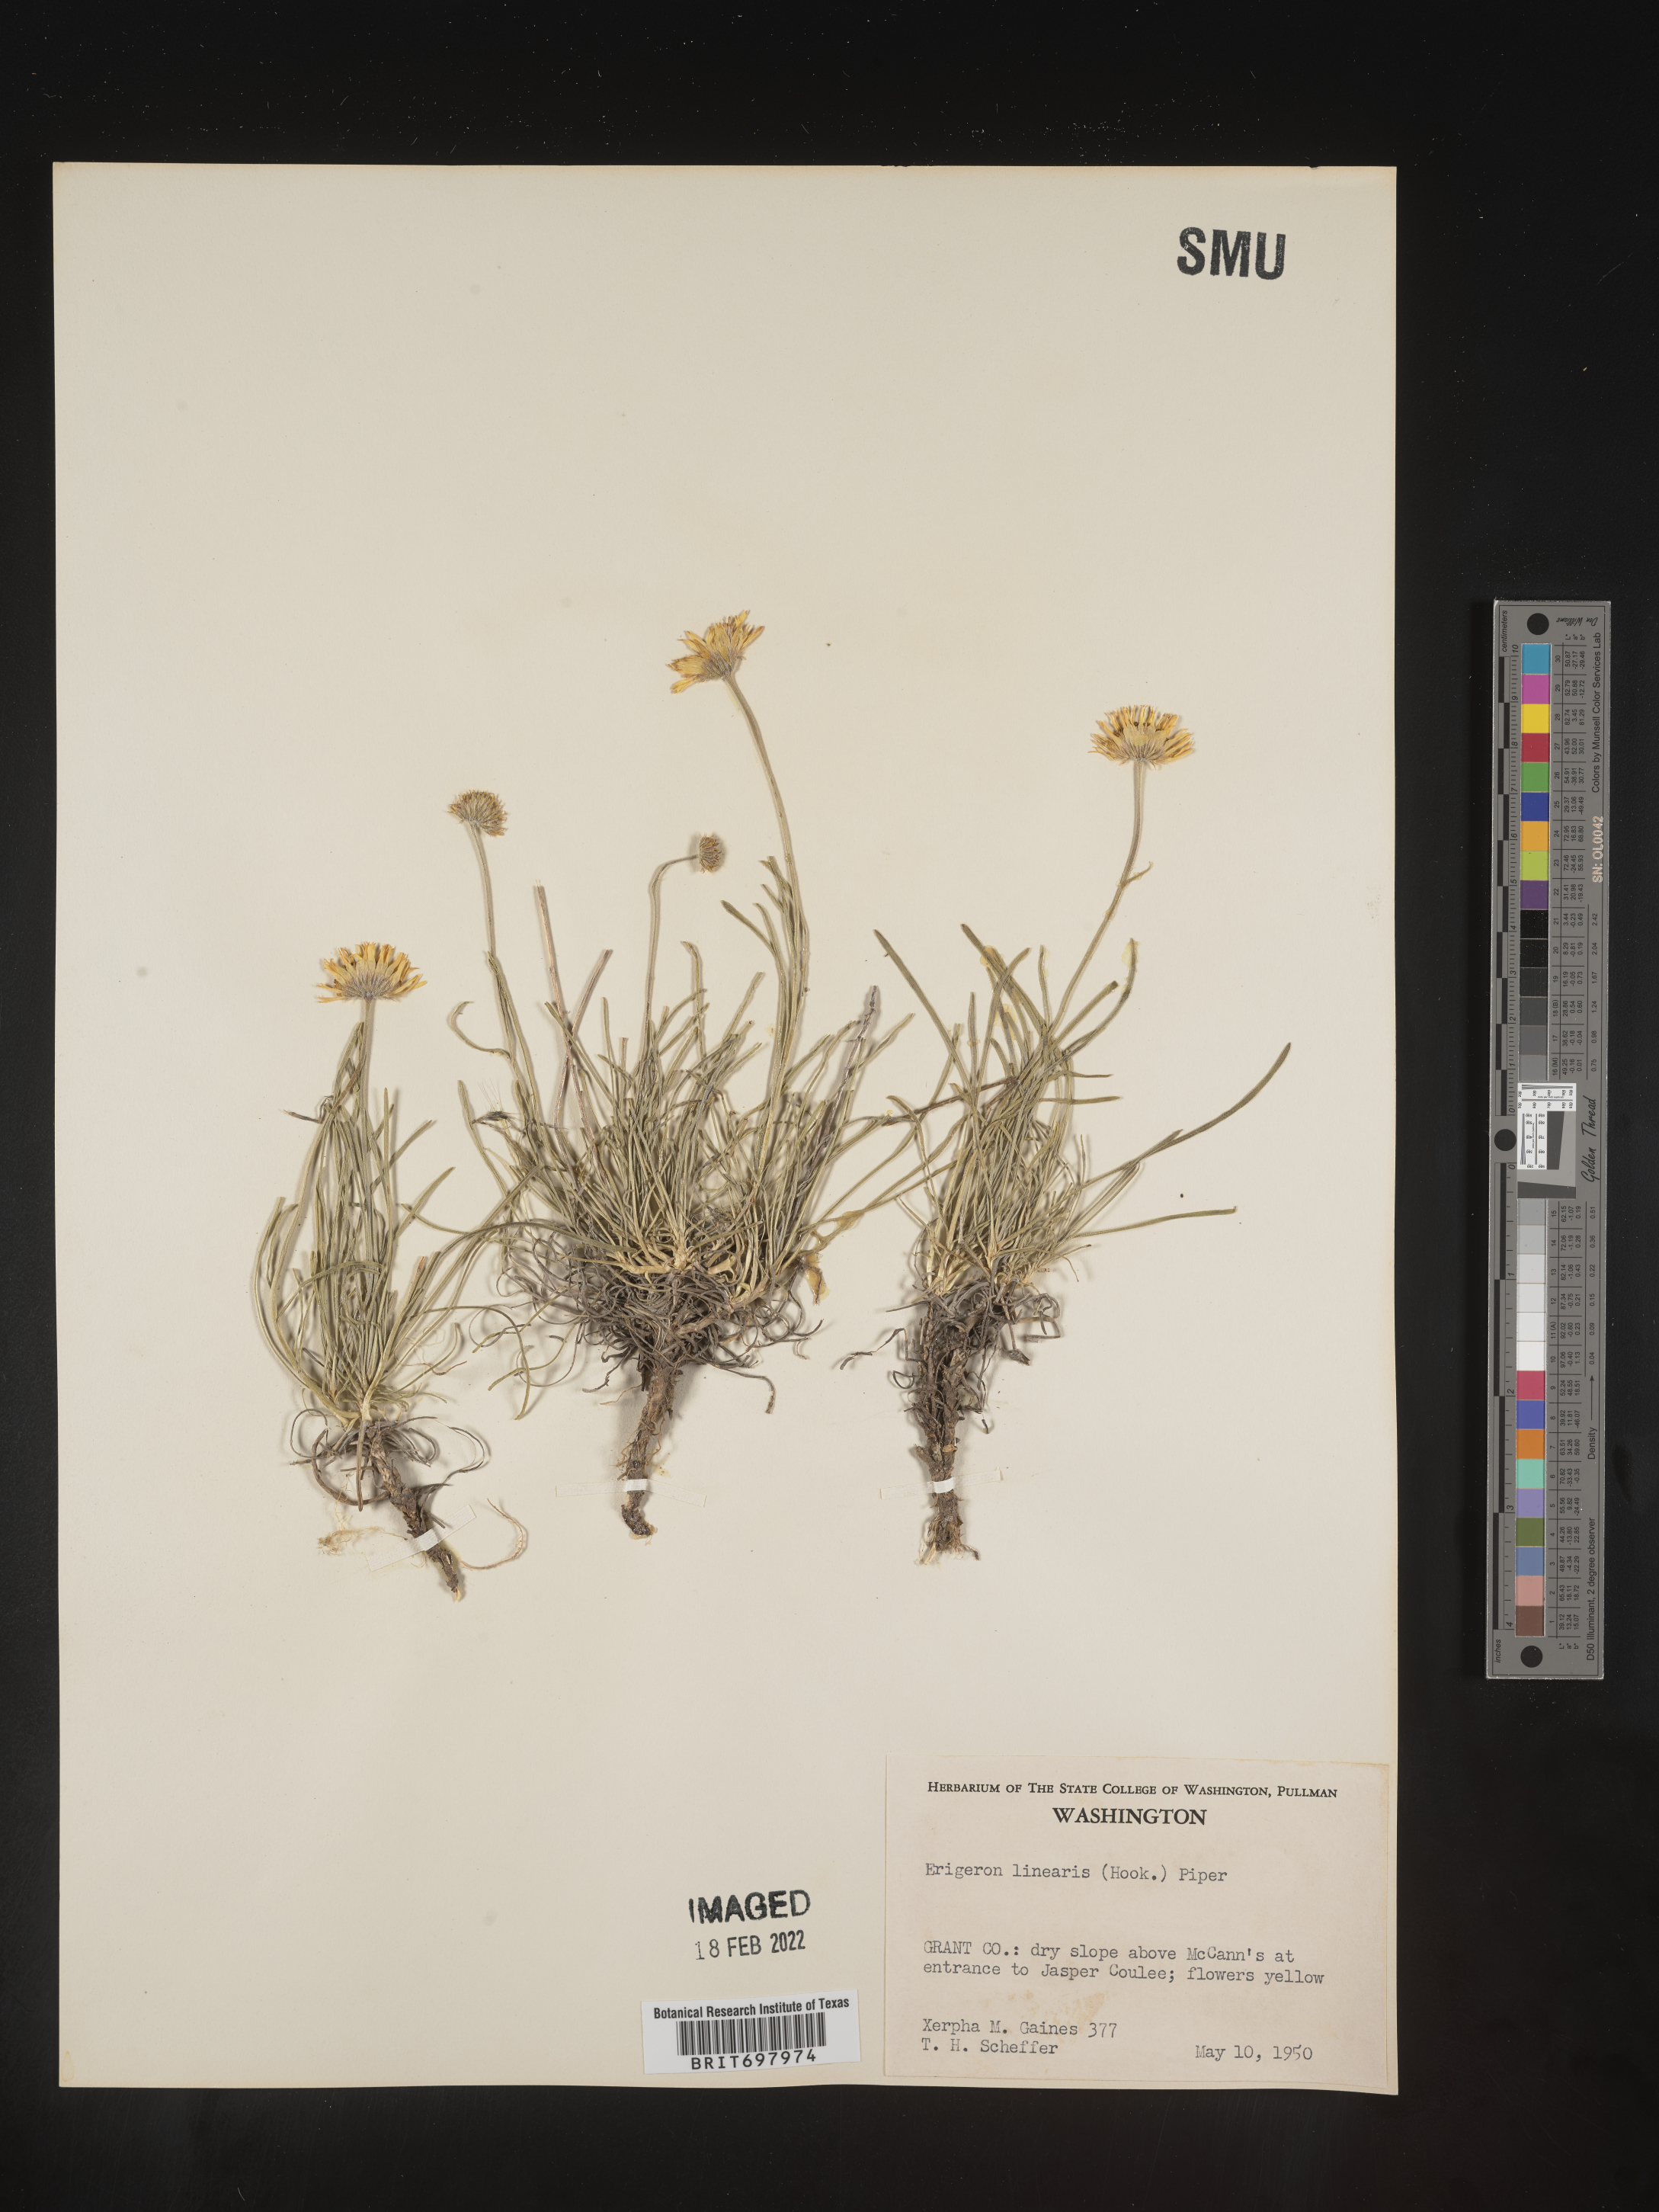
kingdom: Plantae
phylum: Tracheophyta
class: Magnoliopsida
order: Asterales
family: Asteraceae
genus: Erigeron
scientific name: Erigeron linearis
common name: Desert yellow fleabane
